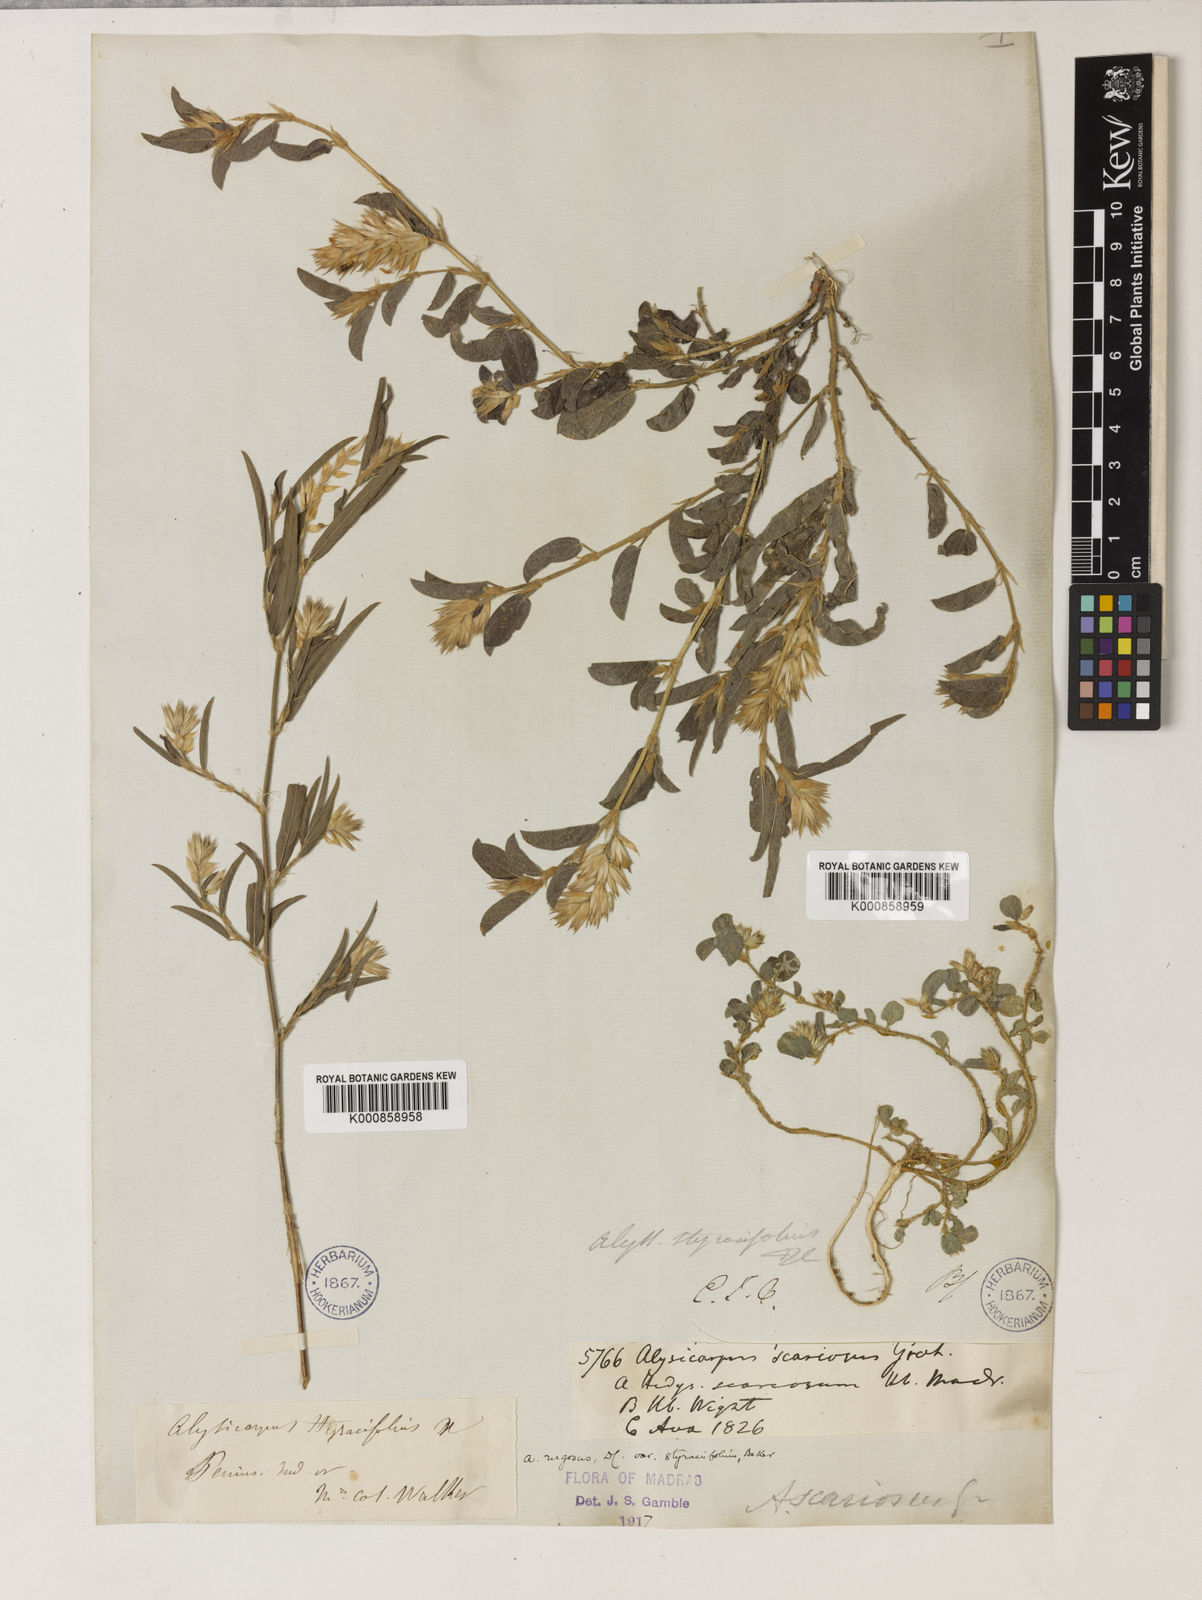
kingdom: Plantae
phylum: Tracheophyta
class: Magnoliopsida
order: Fabales
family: Fabaceae
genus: Alysicarpus
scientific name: Alysicarpus scariosus
